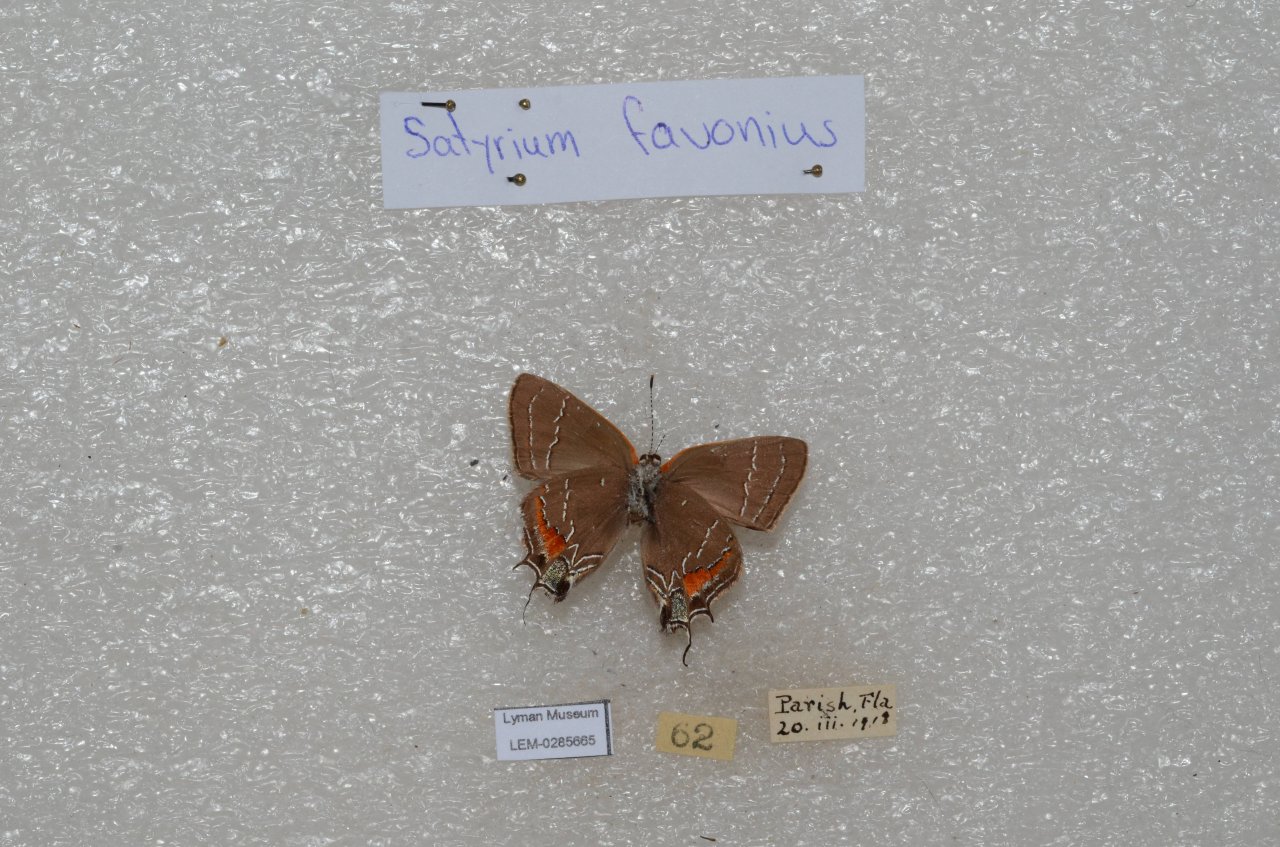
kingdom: Animalia
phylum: Arthropoda
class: Insecta
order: Lepidoptera
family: Lycaenidae
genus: Fixsenia
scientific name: Fixsenia favonius
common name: Oak Hairstreak
